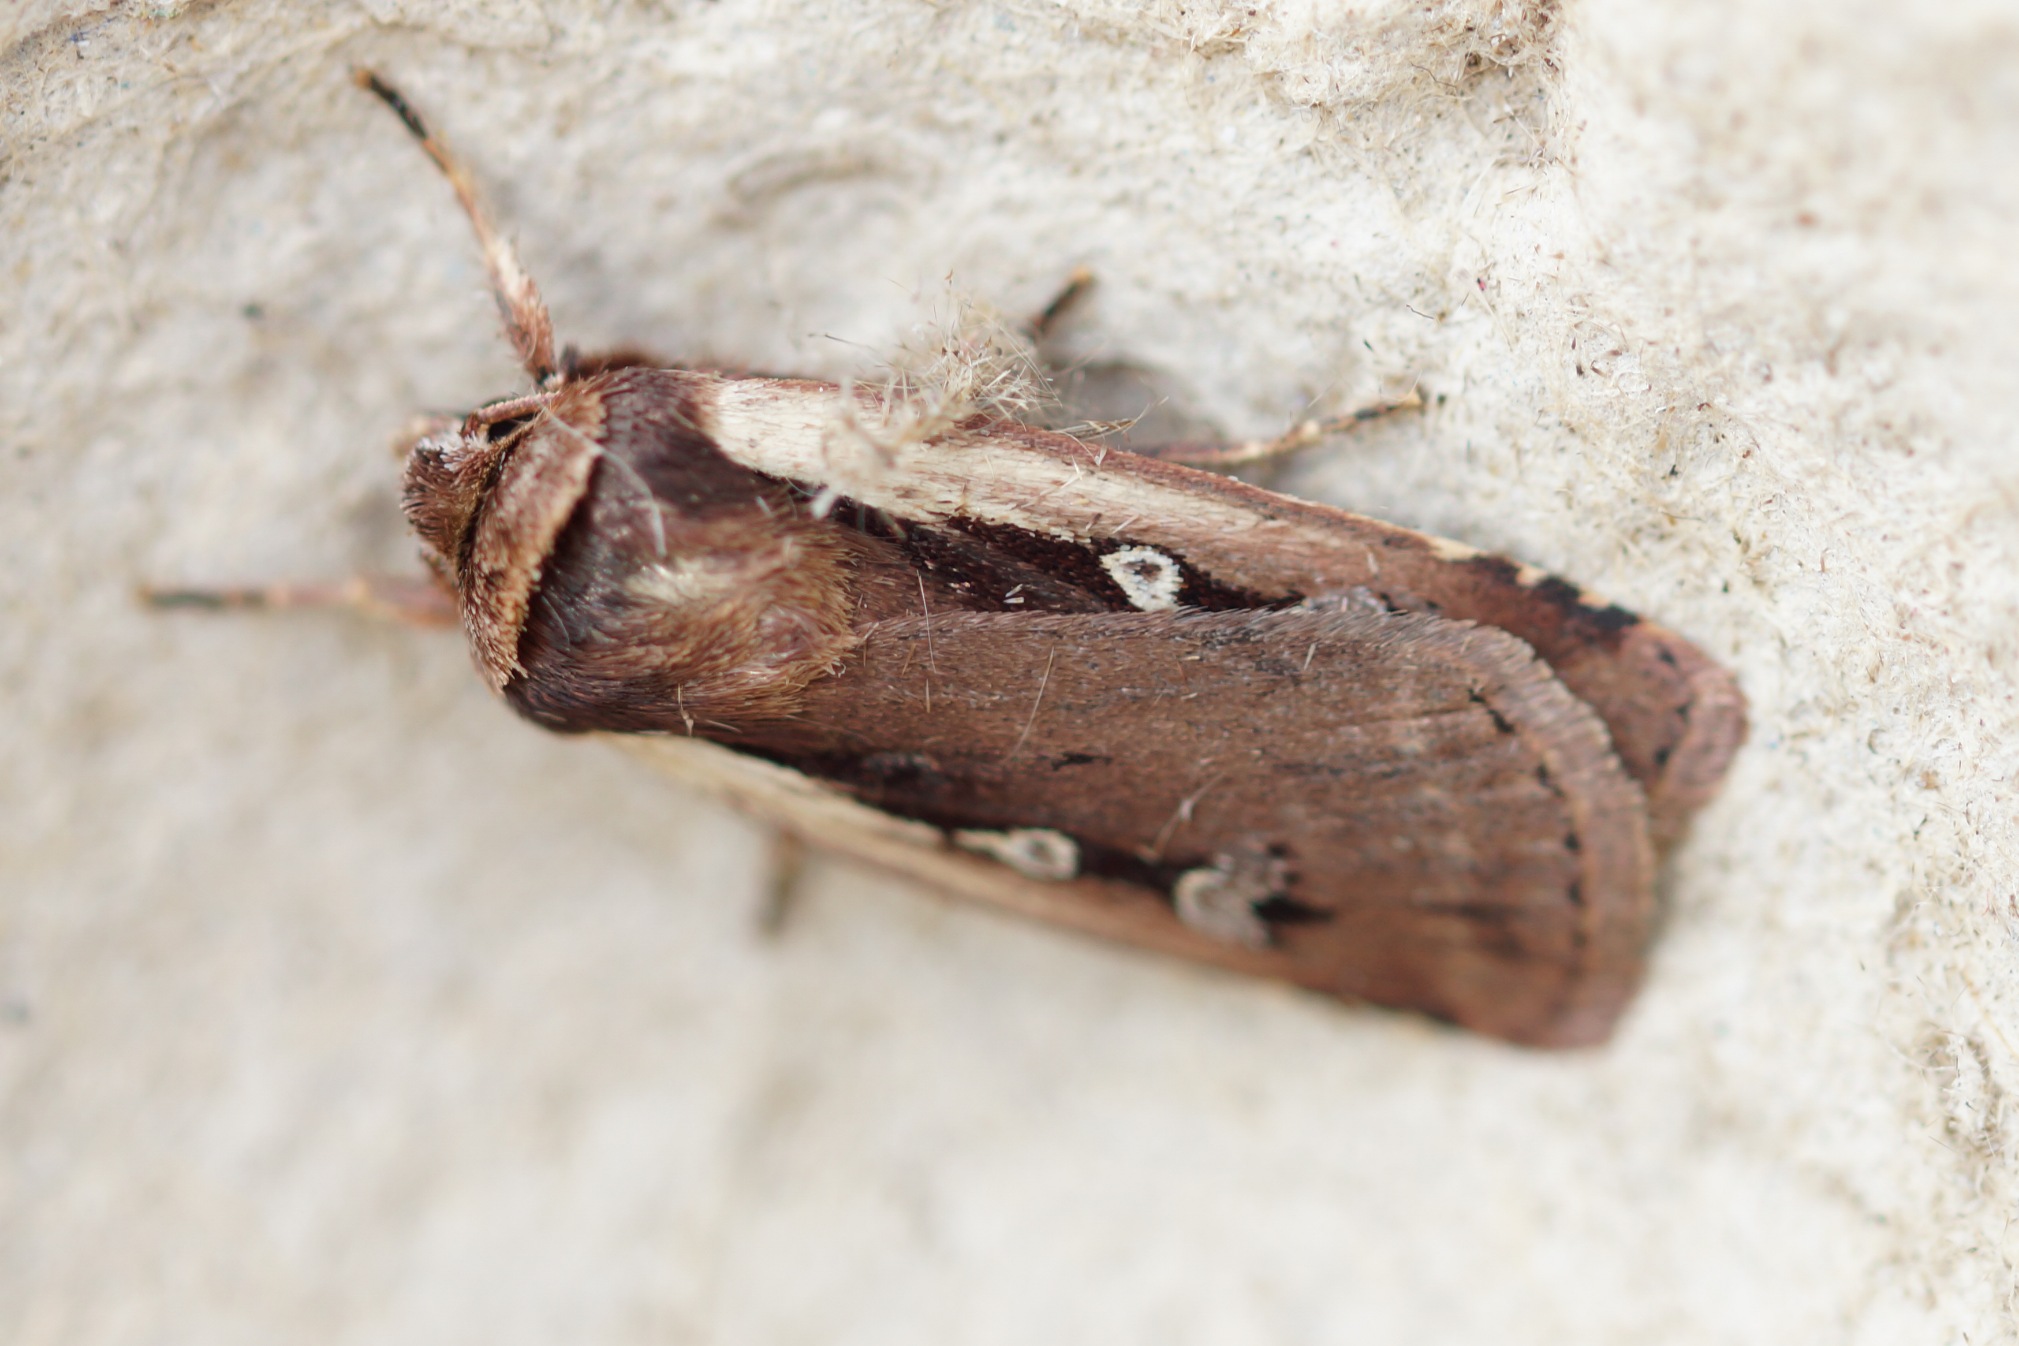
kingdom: Animalia
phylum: Arthropoda
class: Insecta
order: Lepidoptera
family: Noctuidae
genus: Ochropleura
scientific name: Ochropleura plecta
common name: Hvidrandet jordugle
